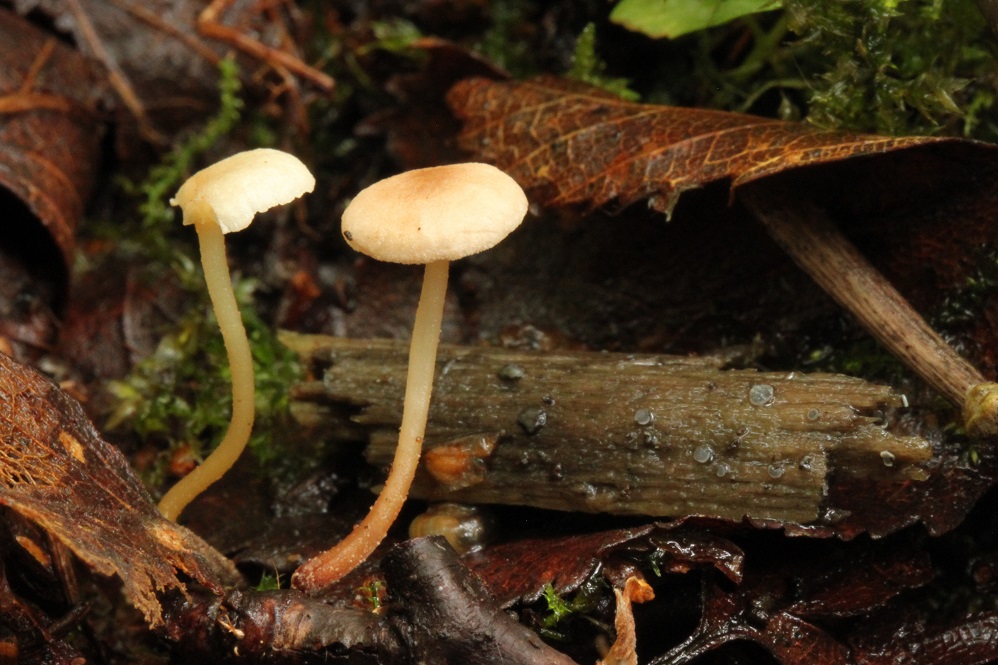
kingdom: Fungi
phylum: Basidiomycota
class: Agaricomycetes
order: Agaricales
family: Omphalotaceae
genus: Collybiopsis
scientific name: Collybiopsis vaillantii
